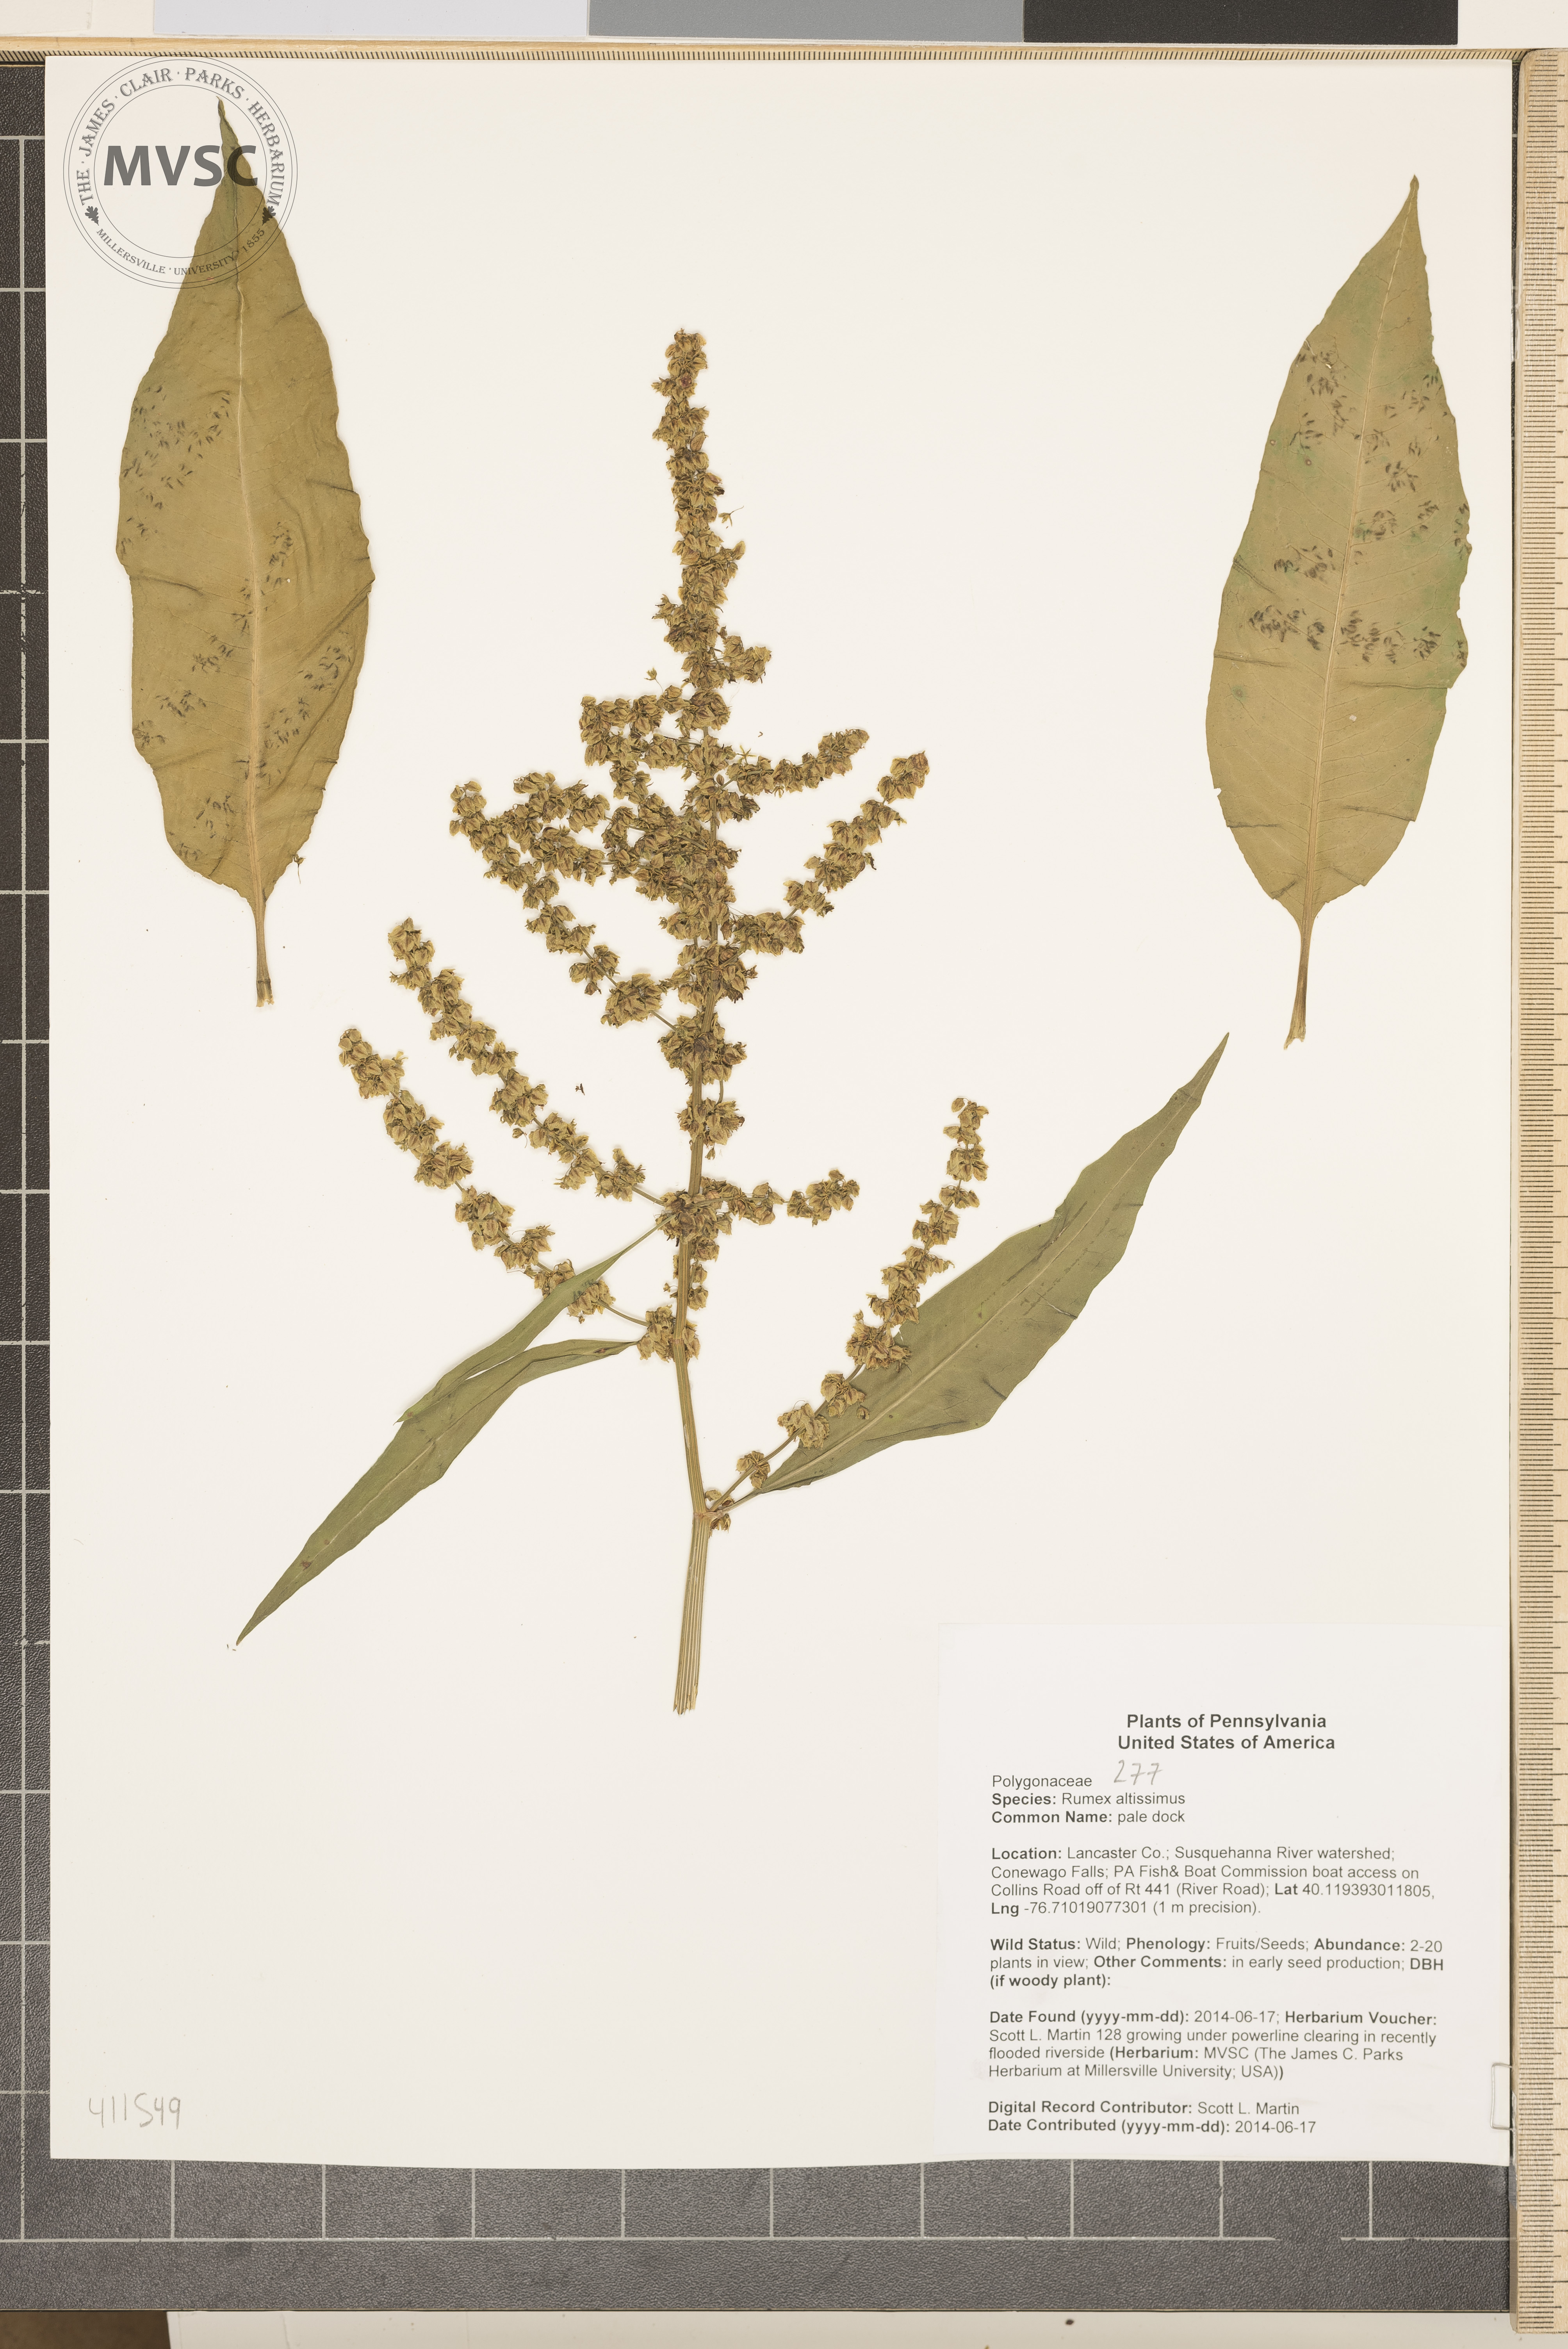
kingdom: Plantae
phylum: Tracheophyta
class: Magnoliopsida
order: Caryophyllales
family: Polygonaceae
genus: Rumex
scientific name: Rumex altissimus
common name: pale dock
